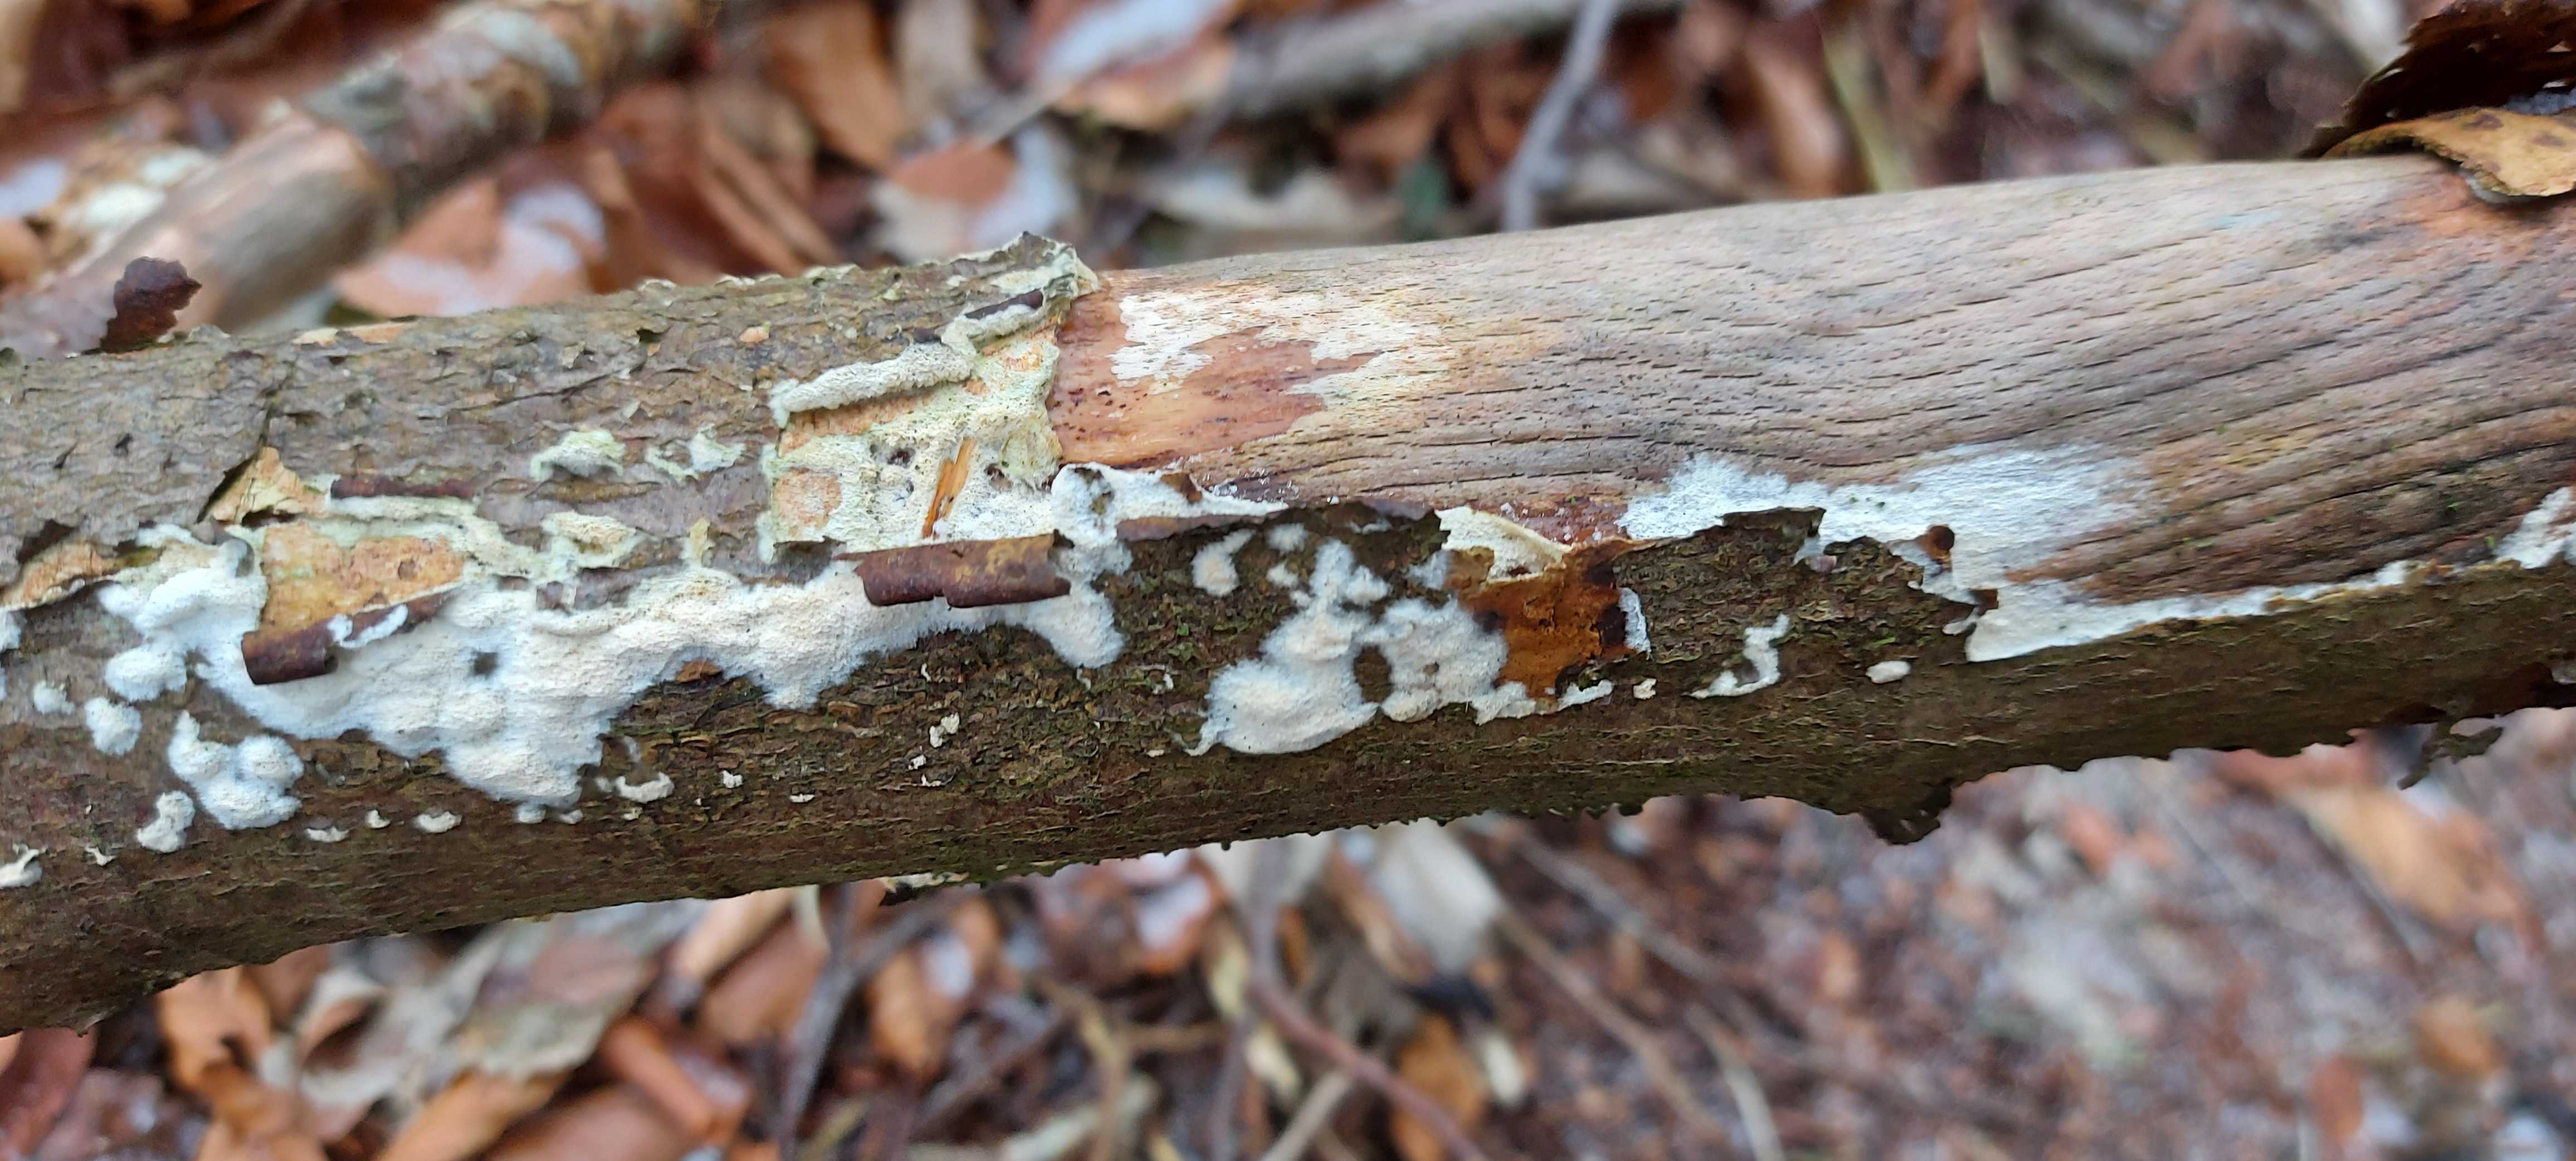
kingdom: Fungi
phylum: Basidiomycota
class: Agaricomycetes
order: Hymenochaetales
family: Schizoporaceae
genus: Xylodon
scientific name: Xylodon
